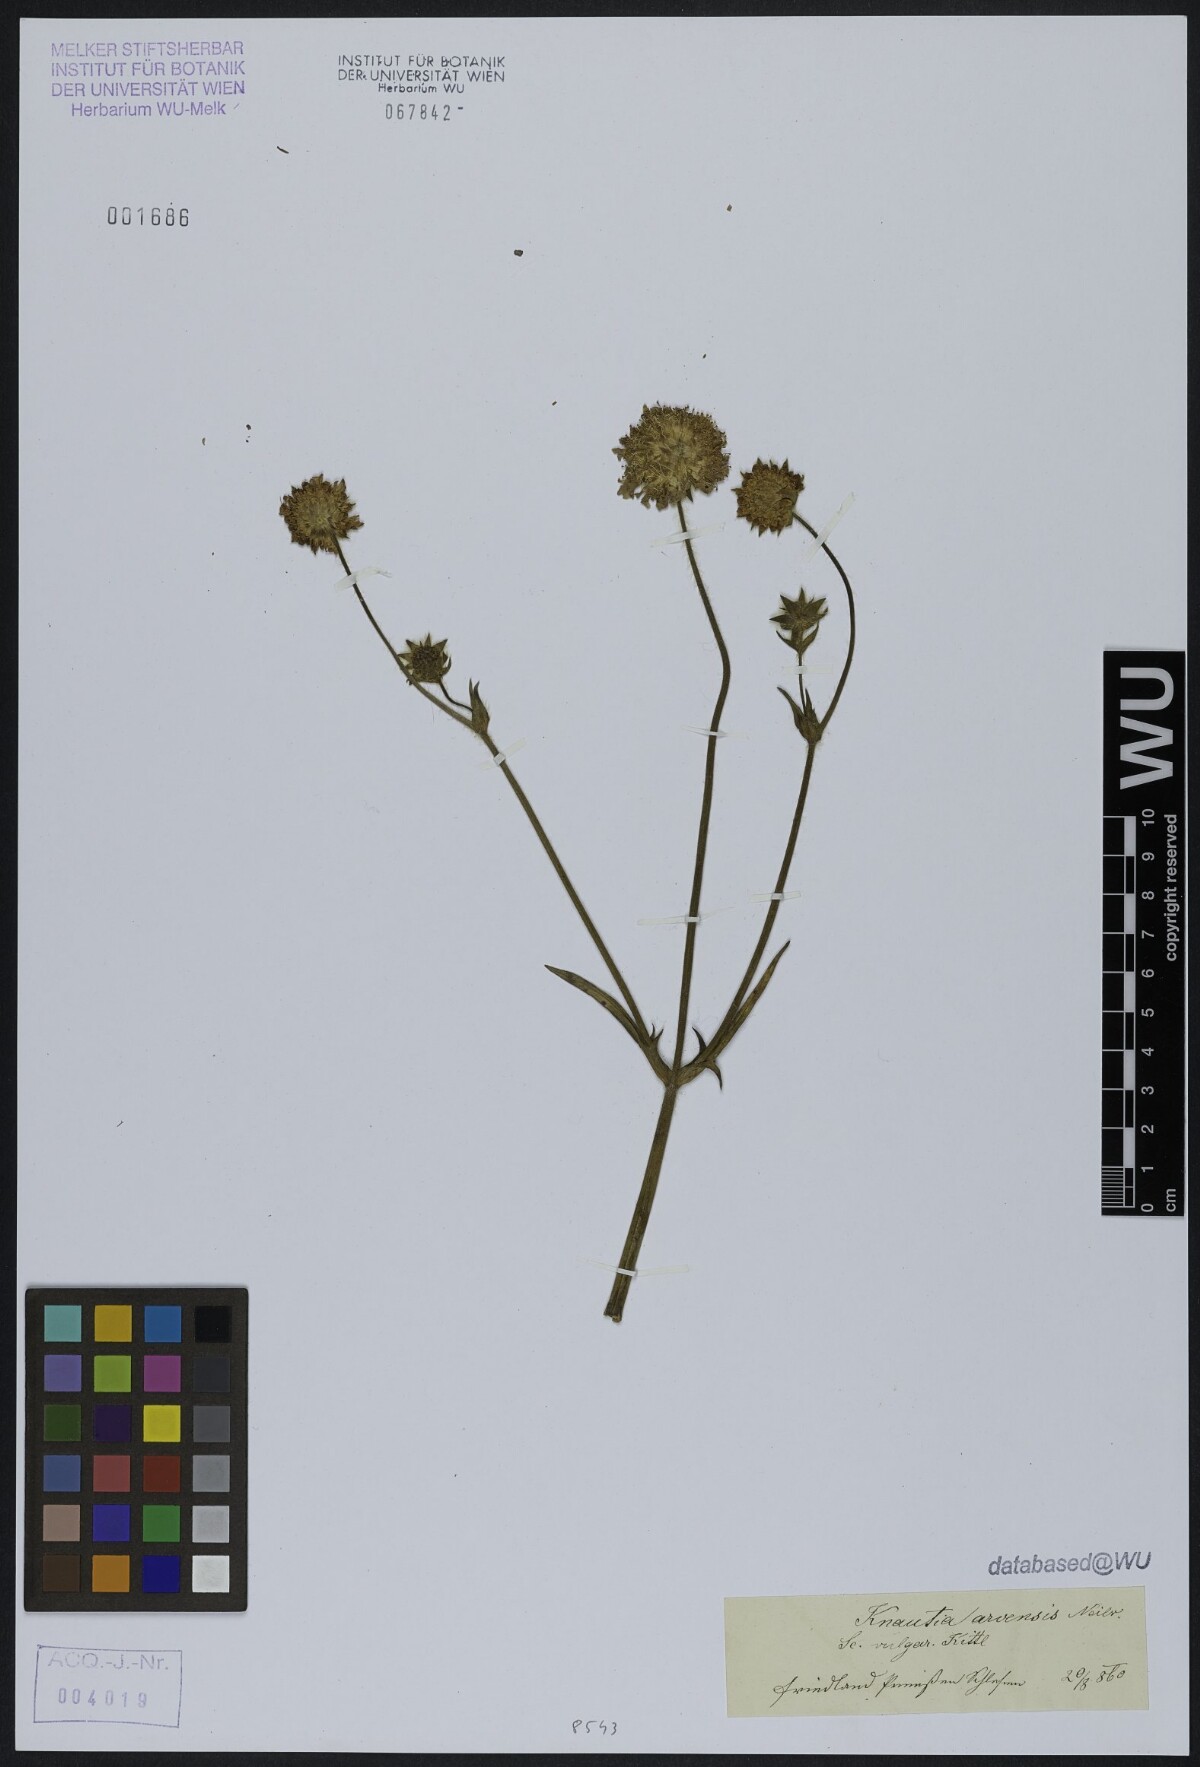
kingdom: Plantae
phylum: Tracheophyta
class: Magnoliopsida
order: Dipsacales
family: Caprifoliaceae
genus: Knautia
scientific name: Knautia arvensis
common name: Field scabiosa
